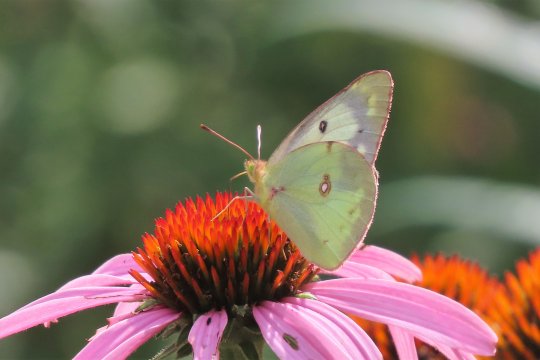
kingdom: Animalia
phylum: Arthropoda
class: Insecta
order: Lepidoptera
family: Pieridae
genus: Colias
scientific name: Colias philodice
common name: Clouded Sulphur
